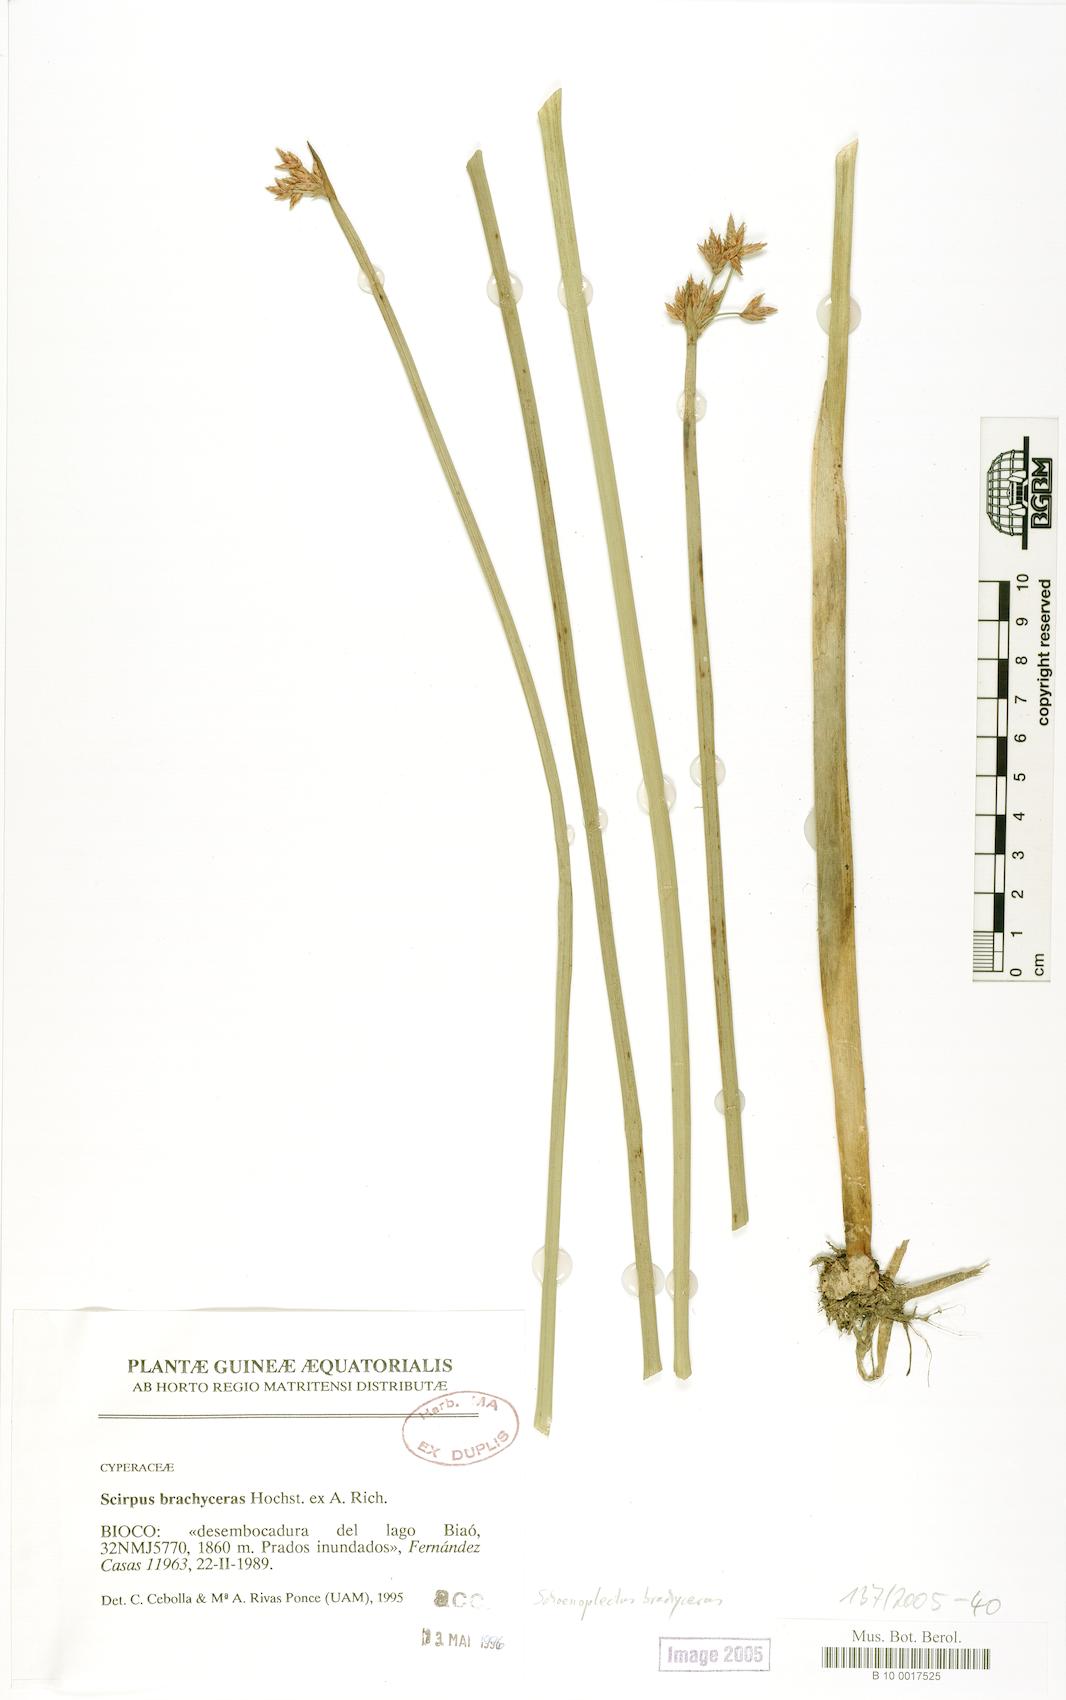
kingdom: Plantae
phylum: Tracheophyta
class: Liliopsida
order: Poales
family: Cyperaceae
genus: Schoenoplectiella
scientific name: Schoenoplectiella brachyceras
